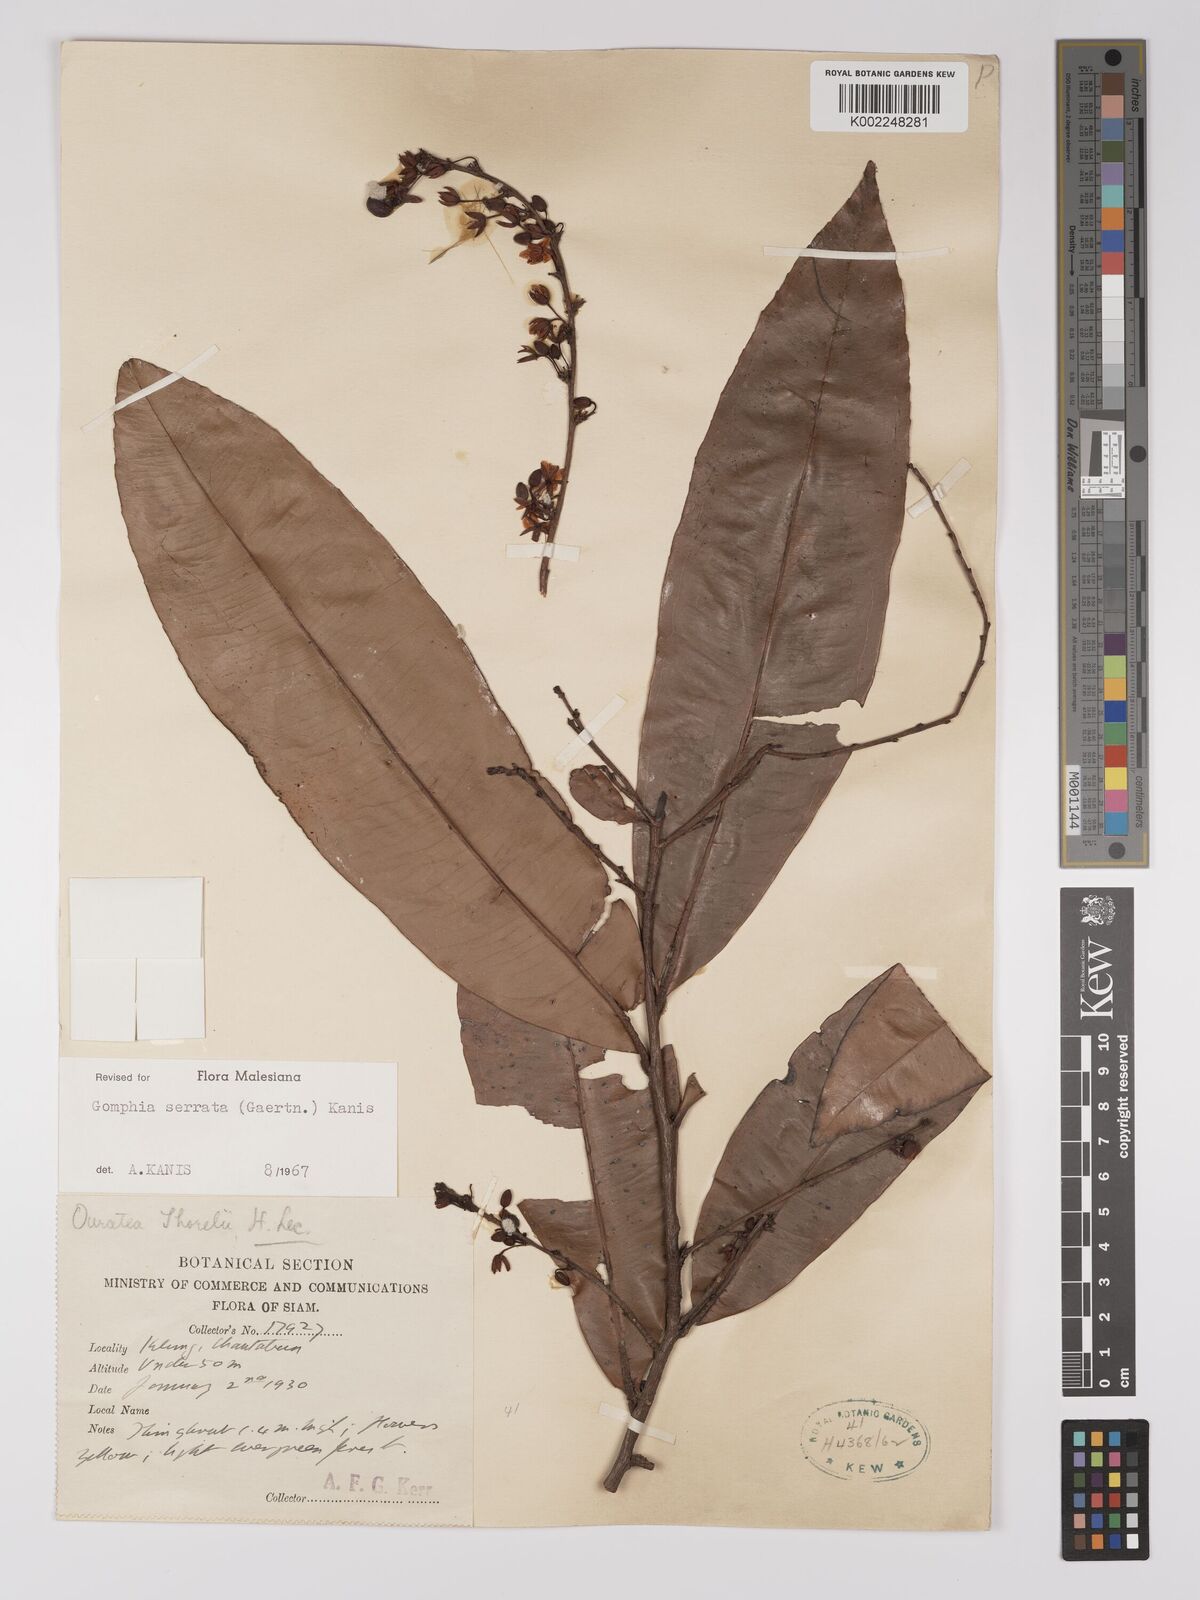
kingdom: Plantae
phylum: Tracheophyta
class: Magnoliopsida
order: Malpighiales
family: Ochnaceae
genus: Gomphia
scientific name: Gomphia serrata
